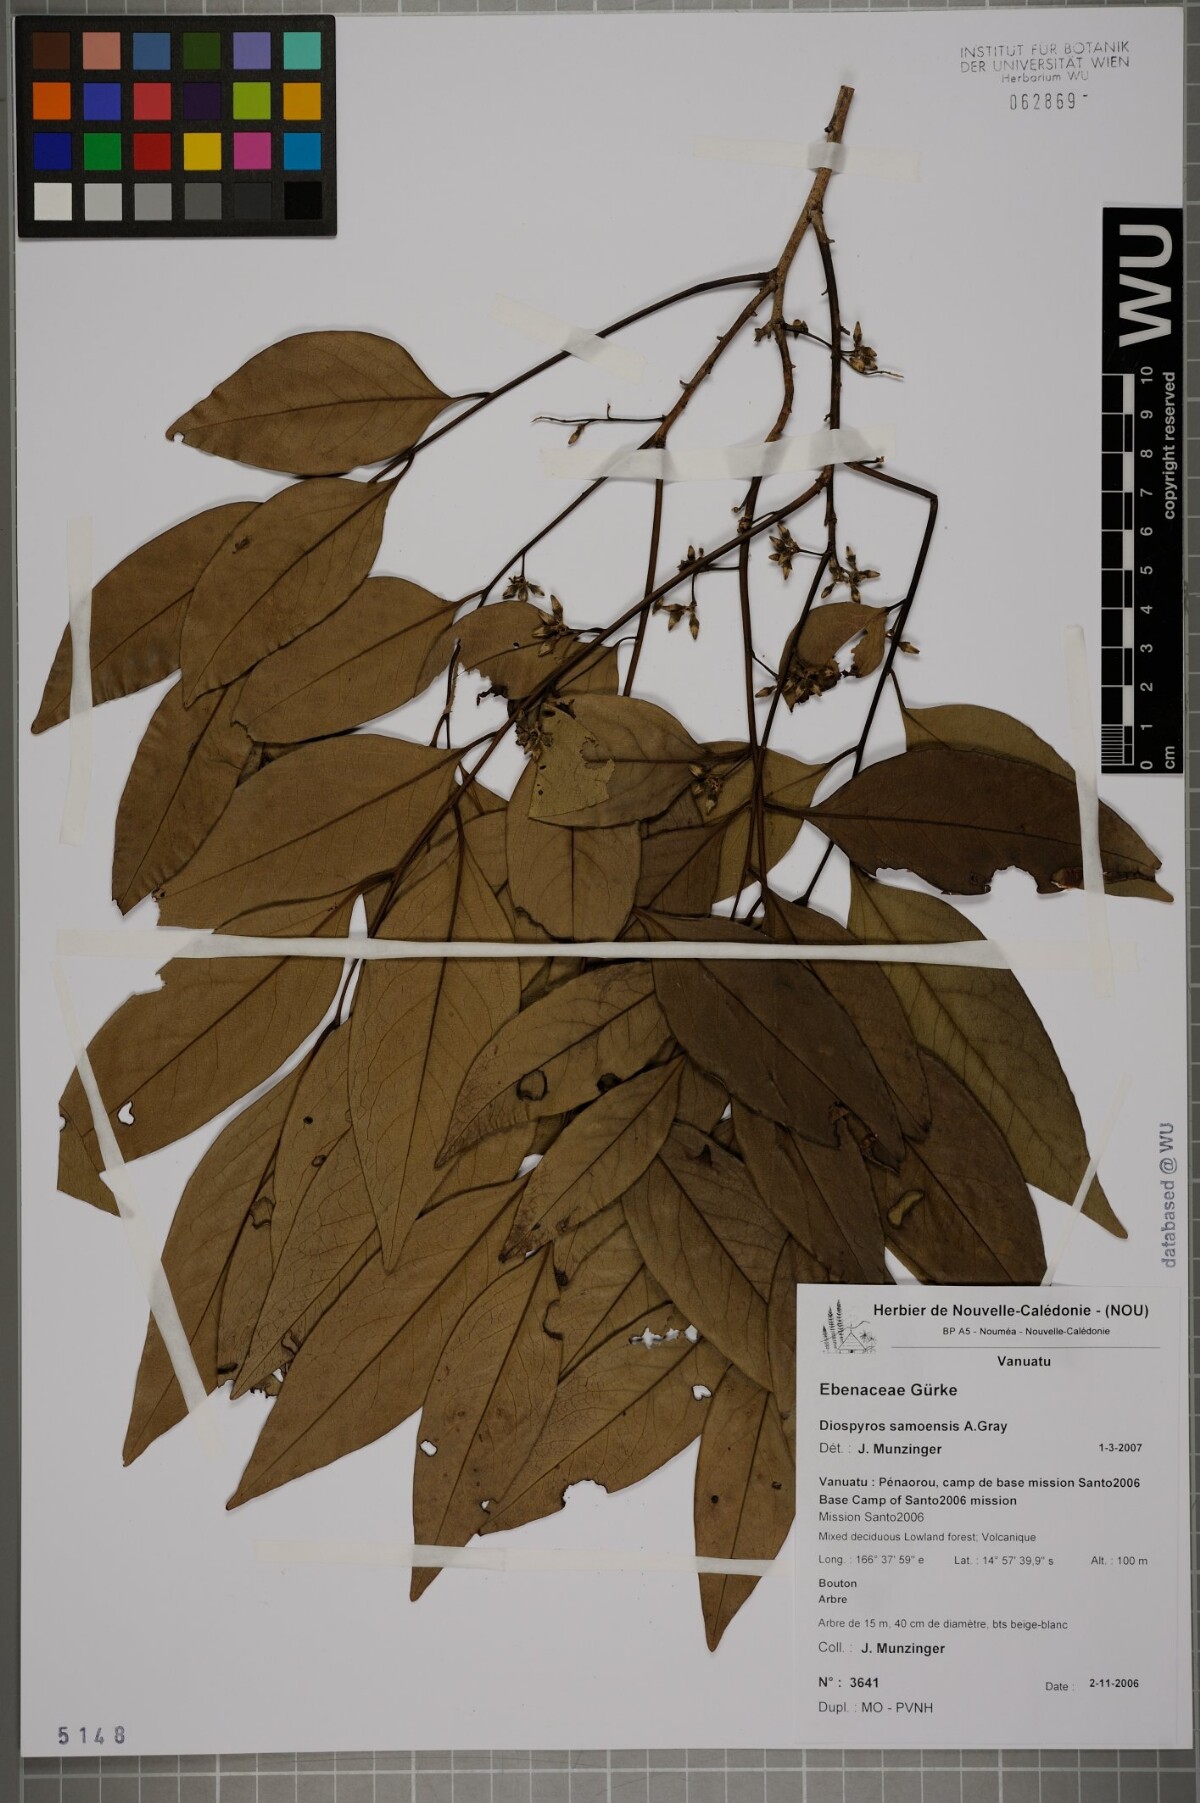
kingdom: Plantae
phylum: Tracheophyta
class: Magnoliopsida
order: Ericales
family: Ebenaceae
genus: Diospyros
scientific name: Diospyros samoensis
